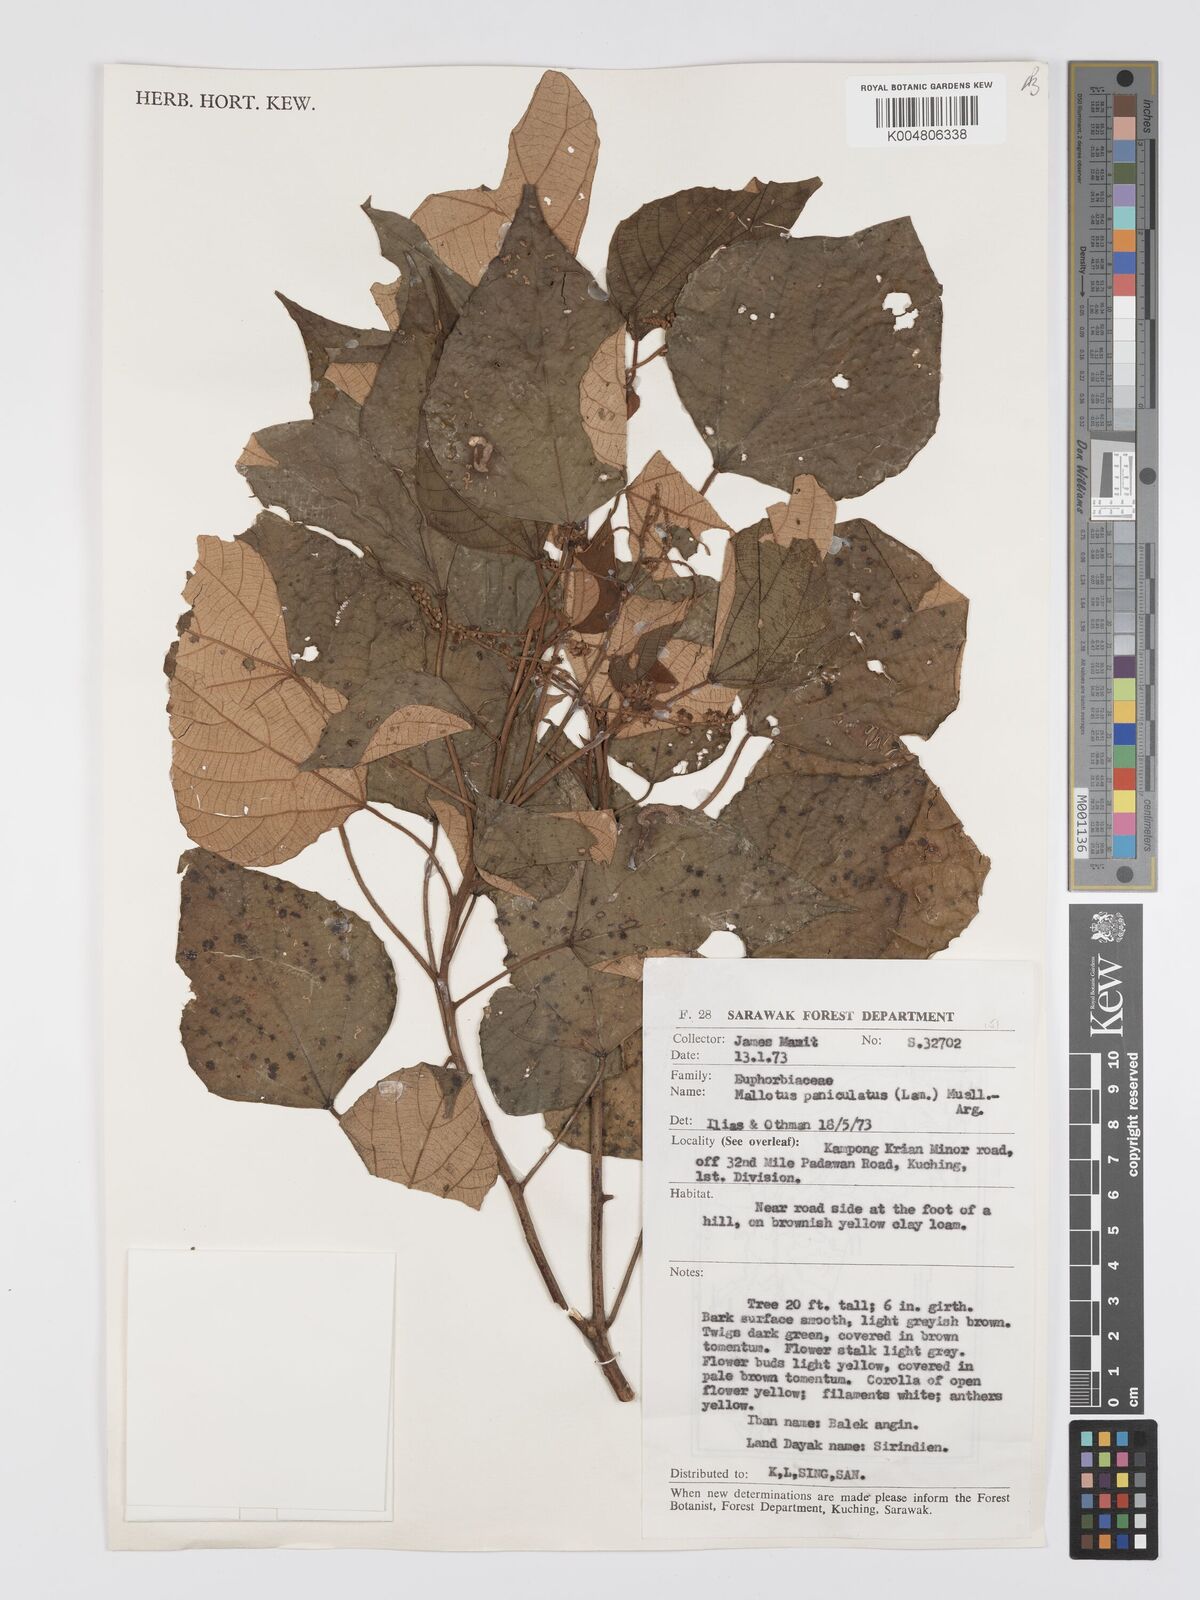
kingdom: Plantae
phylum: Tracheophyta
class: Magnoliopsida
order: Malpighiales
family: Euphorbiaceae
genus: Mallotus
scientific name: Mallotus paniculatus
